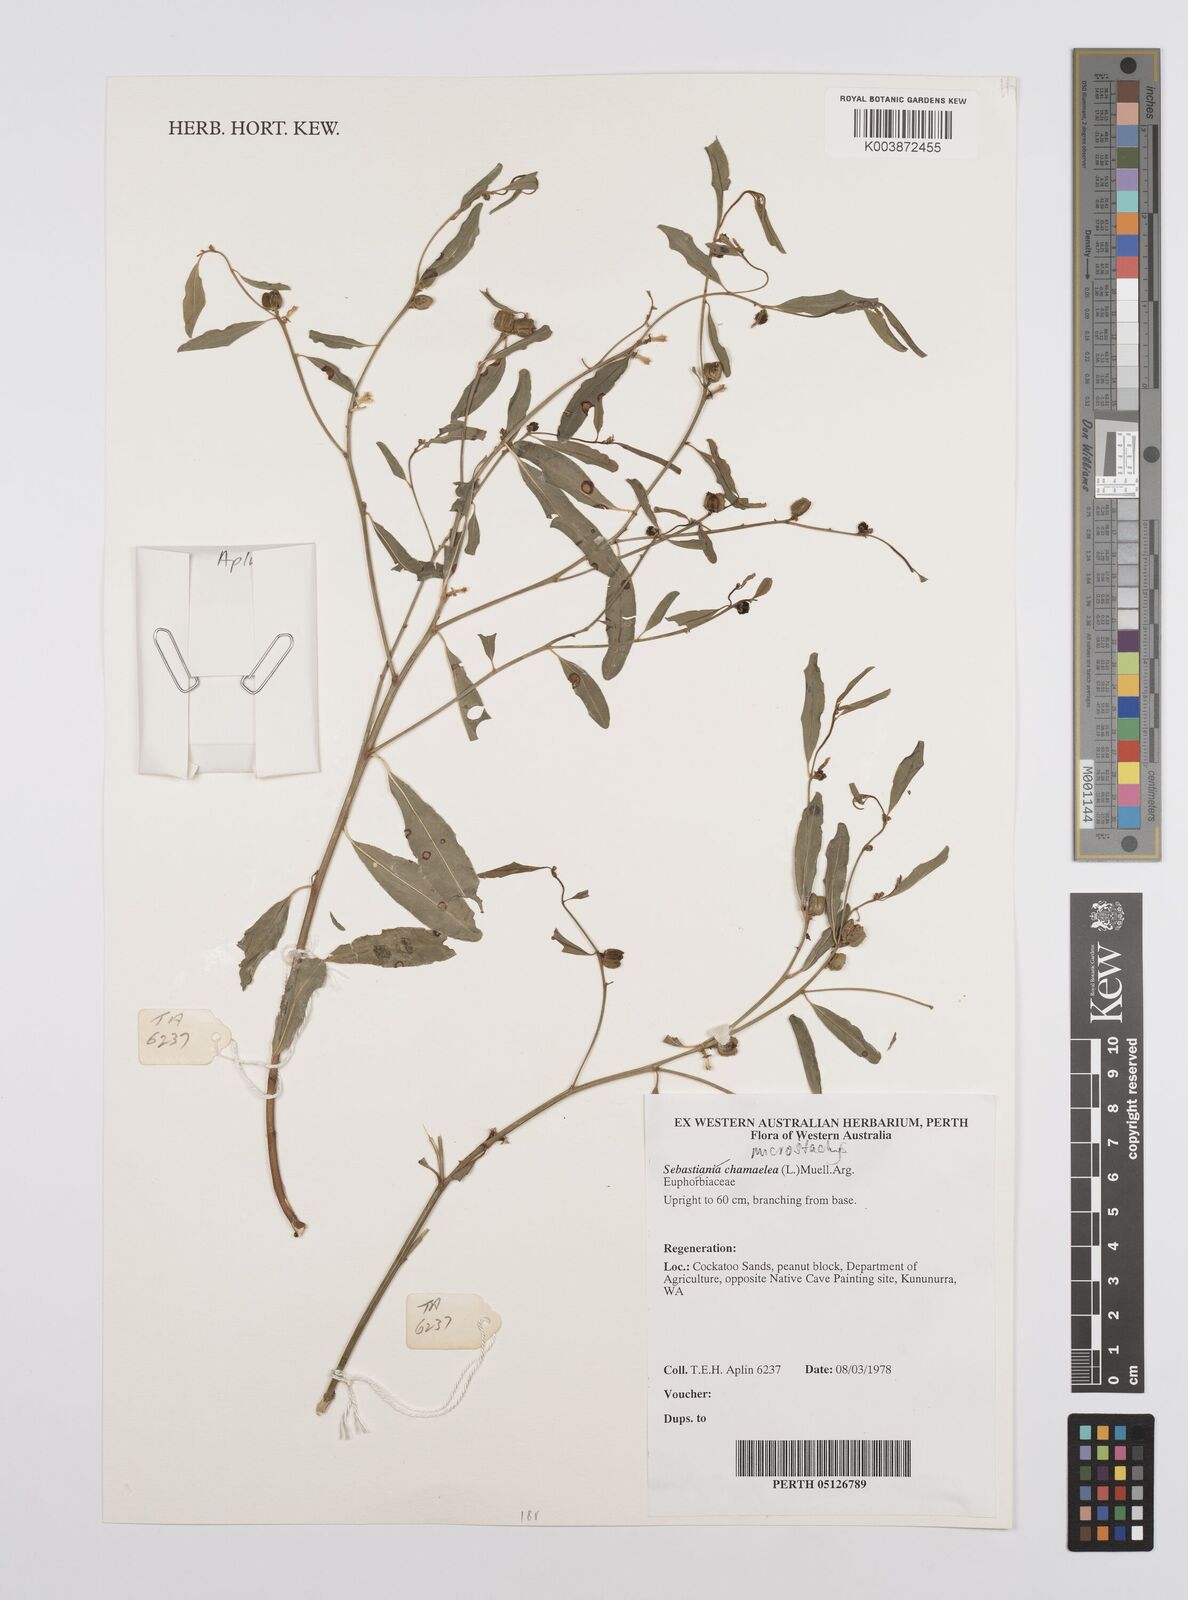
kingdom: Plantae
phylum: Tracheophyta
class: Magnoliopsida
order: Malpighiales
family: Euphorbiaceae
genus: Microstachys
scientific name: Microstachys chamaelea
